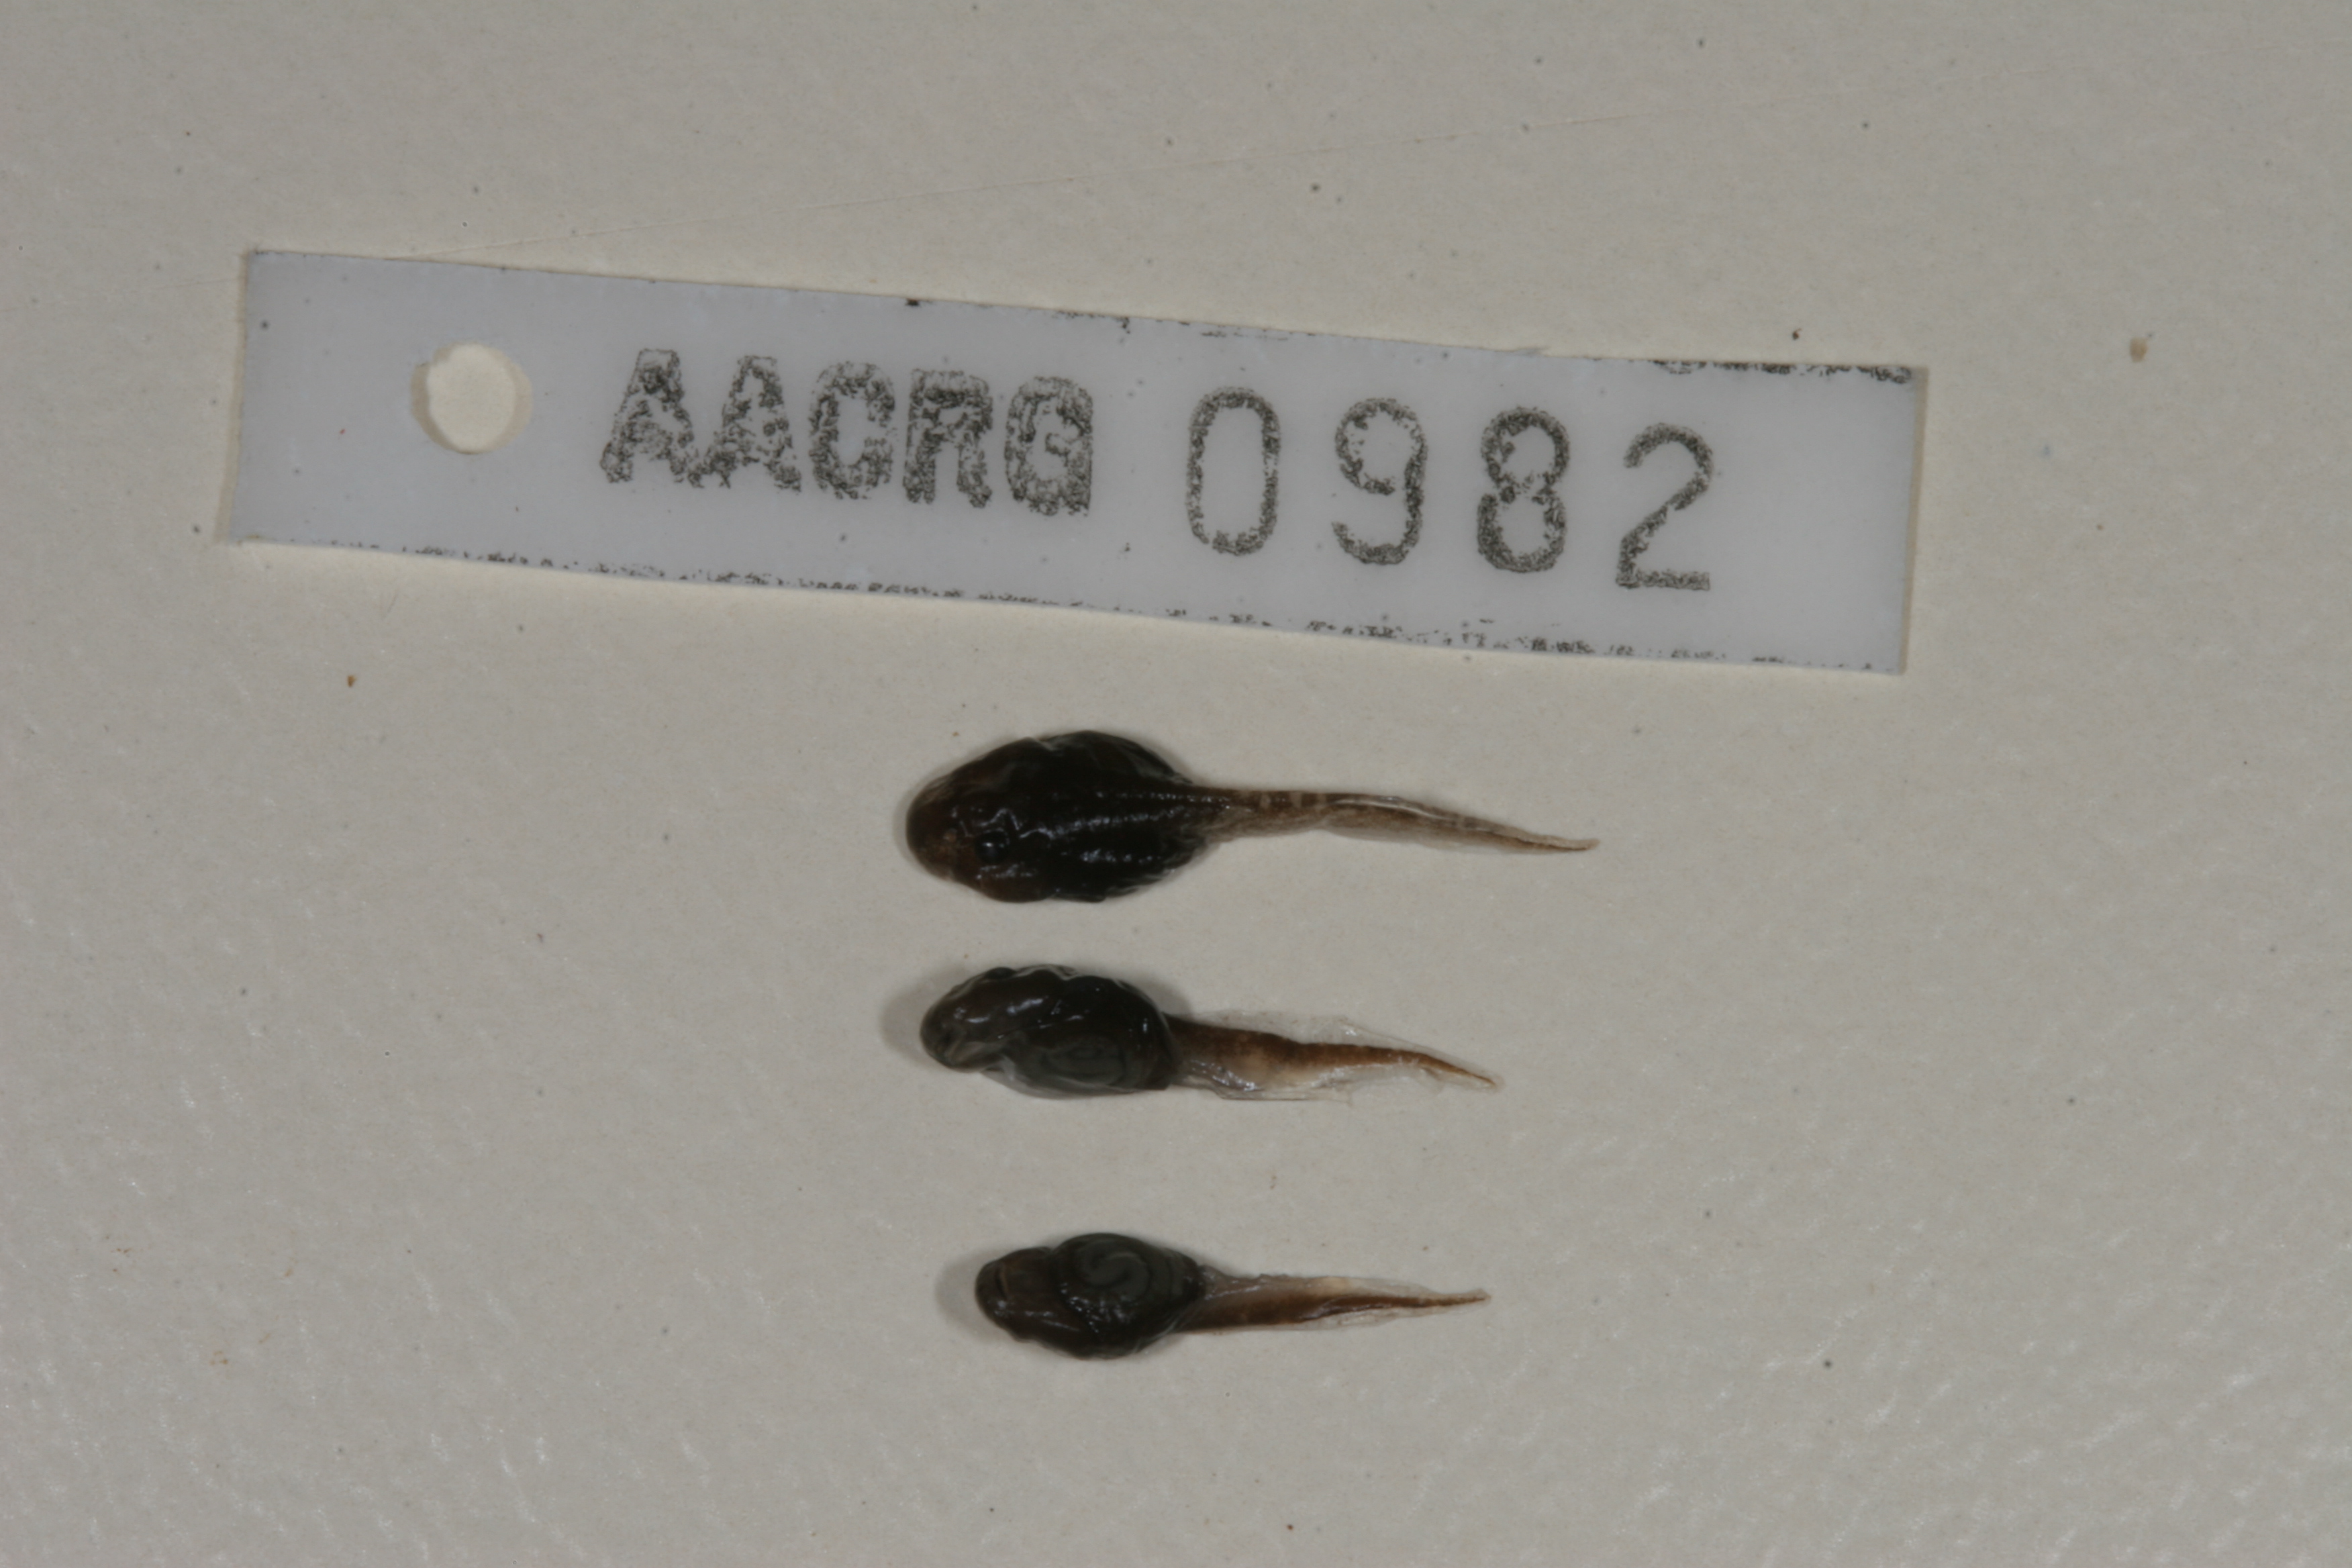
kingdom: Animalia
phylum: Chordata
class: Amphibia
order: Anura
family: Bufonidae
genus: Sclerophrys
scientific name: Sclerophrys gutturalis
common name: African common toad
